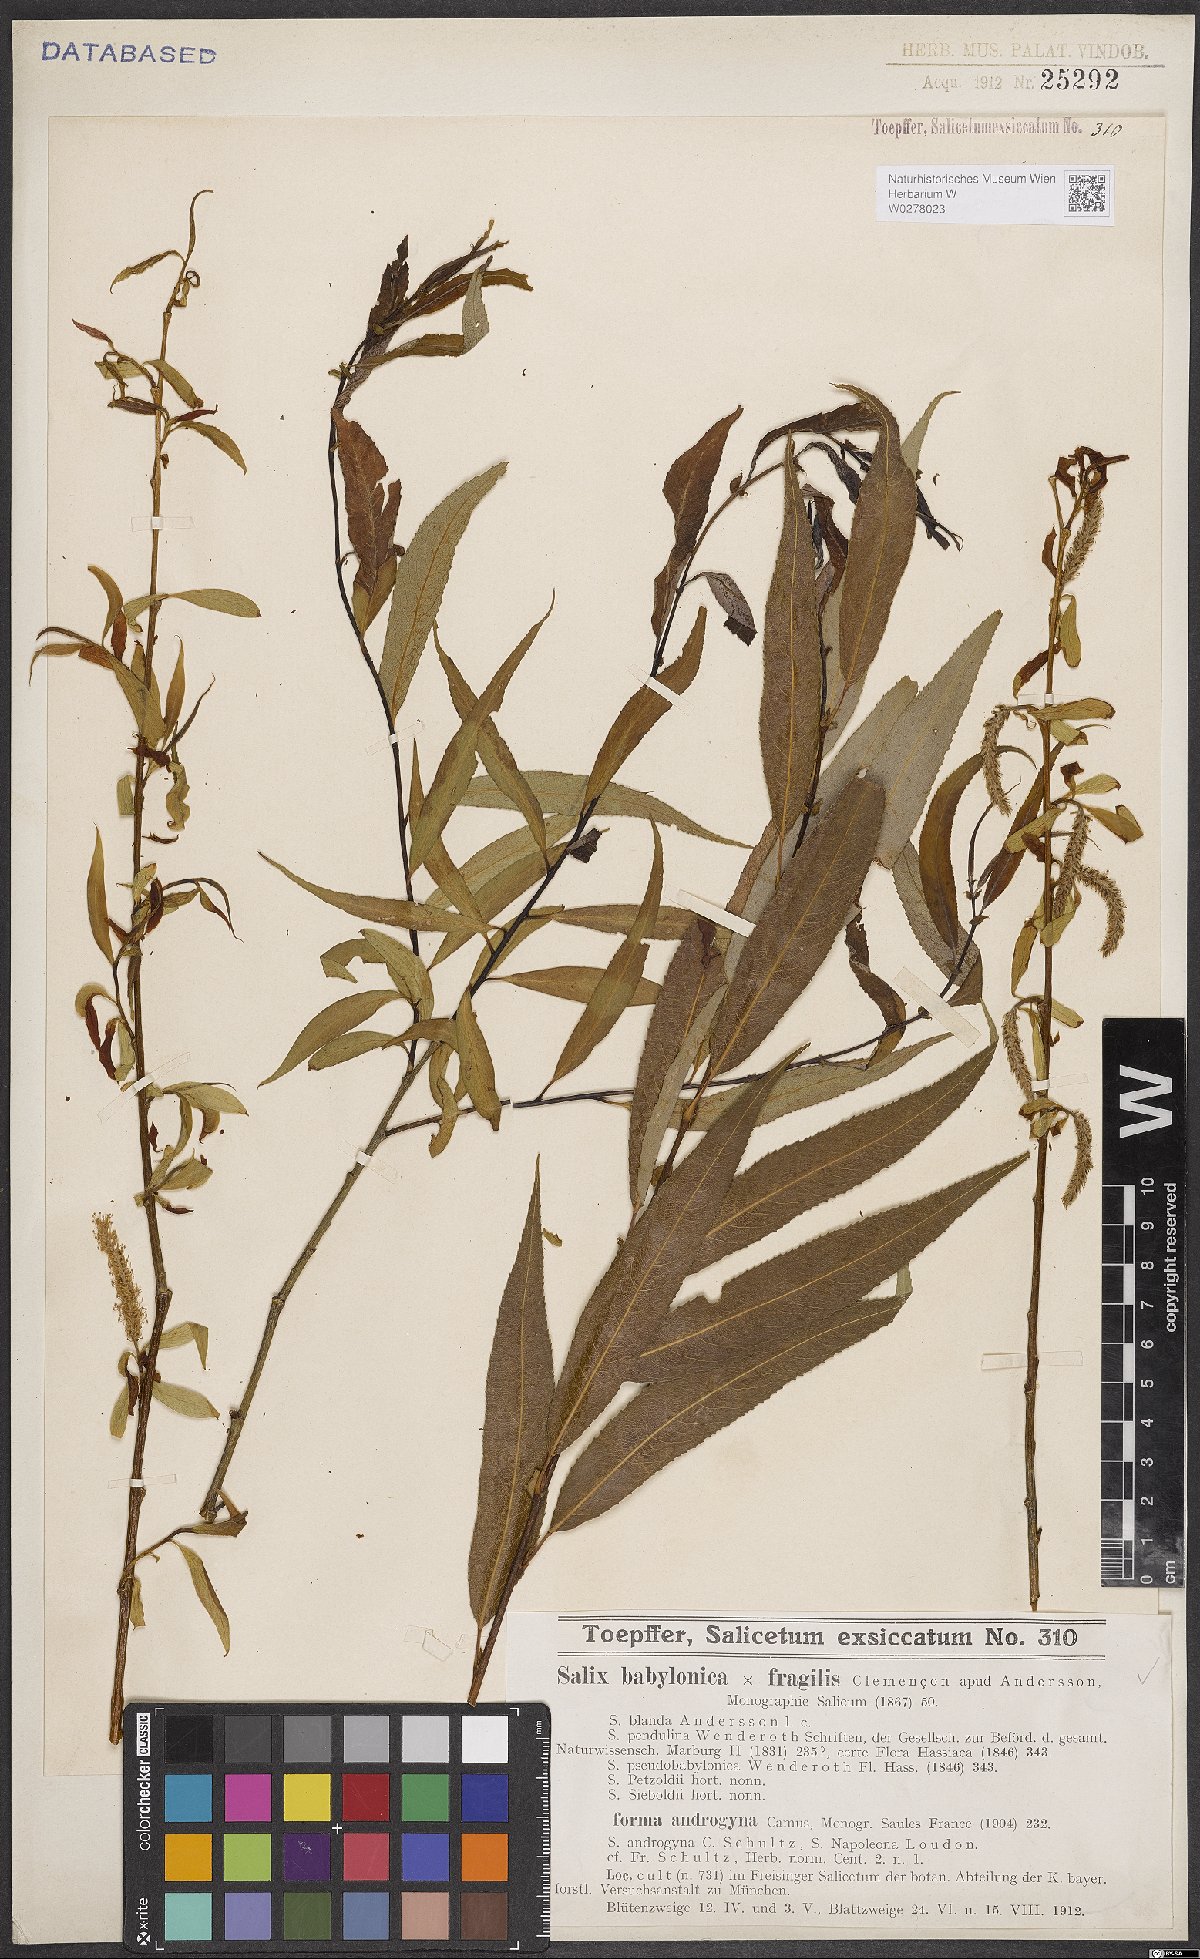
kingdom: Plantae
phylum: Tracheophyta
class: Magnoliopsida
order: Malpighiales
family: Salicaceae
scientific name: Salicaceae
